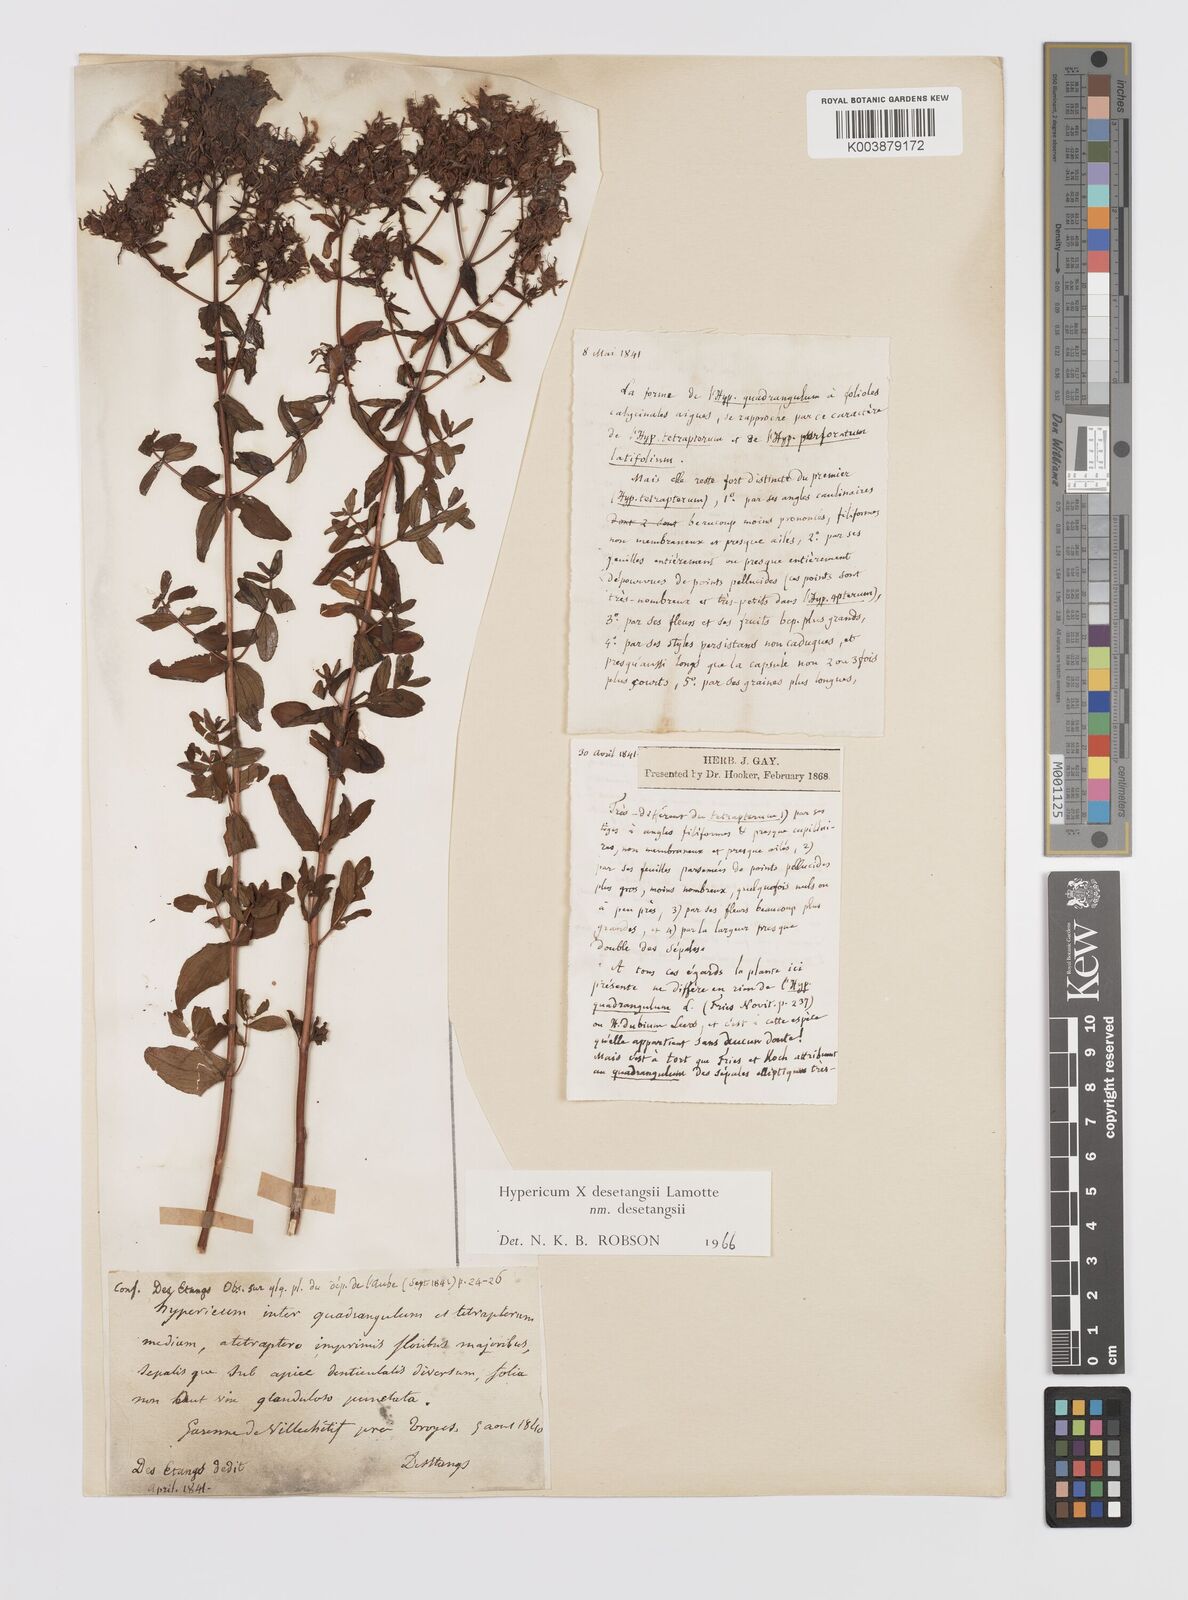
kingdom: Plantae
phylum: Tracheophyta
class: Magnoliopsida
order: Malpighiales
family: Hypericaceae
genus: Hypericum
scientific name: Hypericum desetangsii
